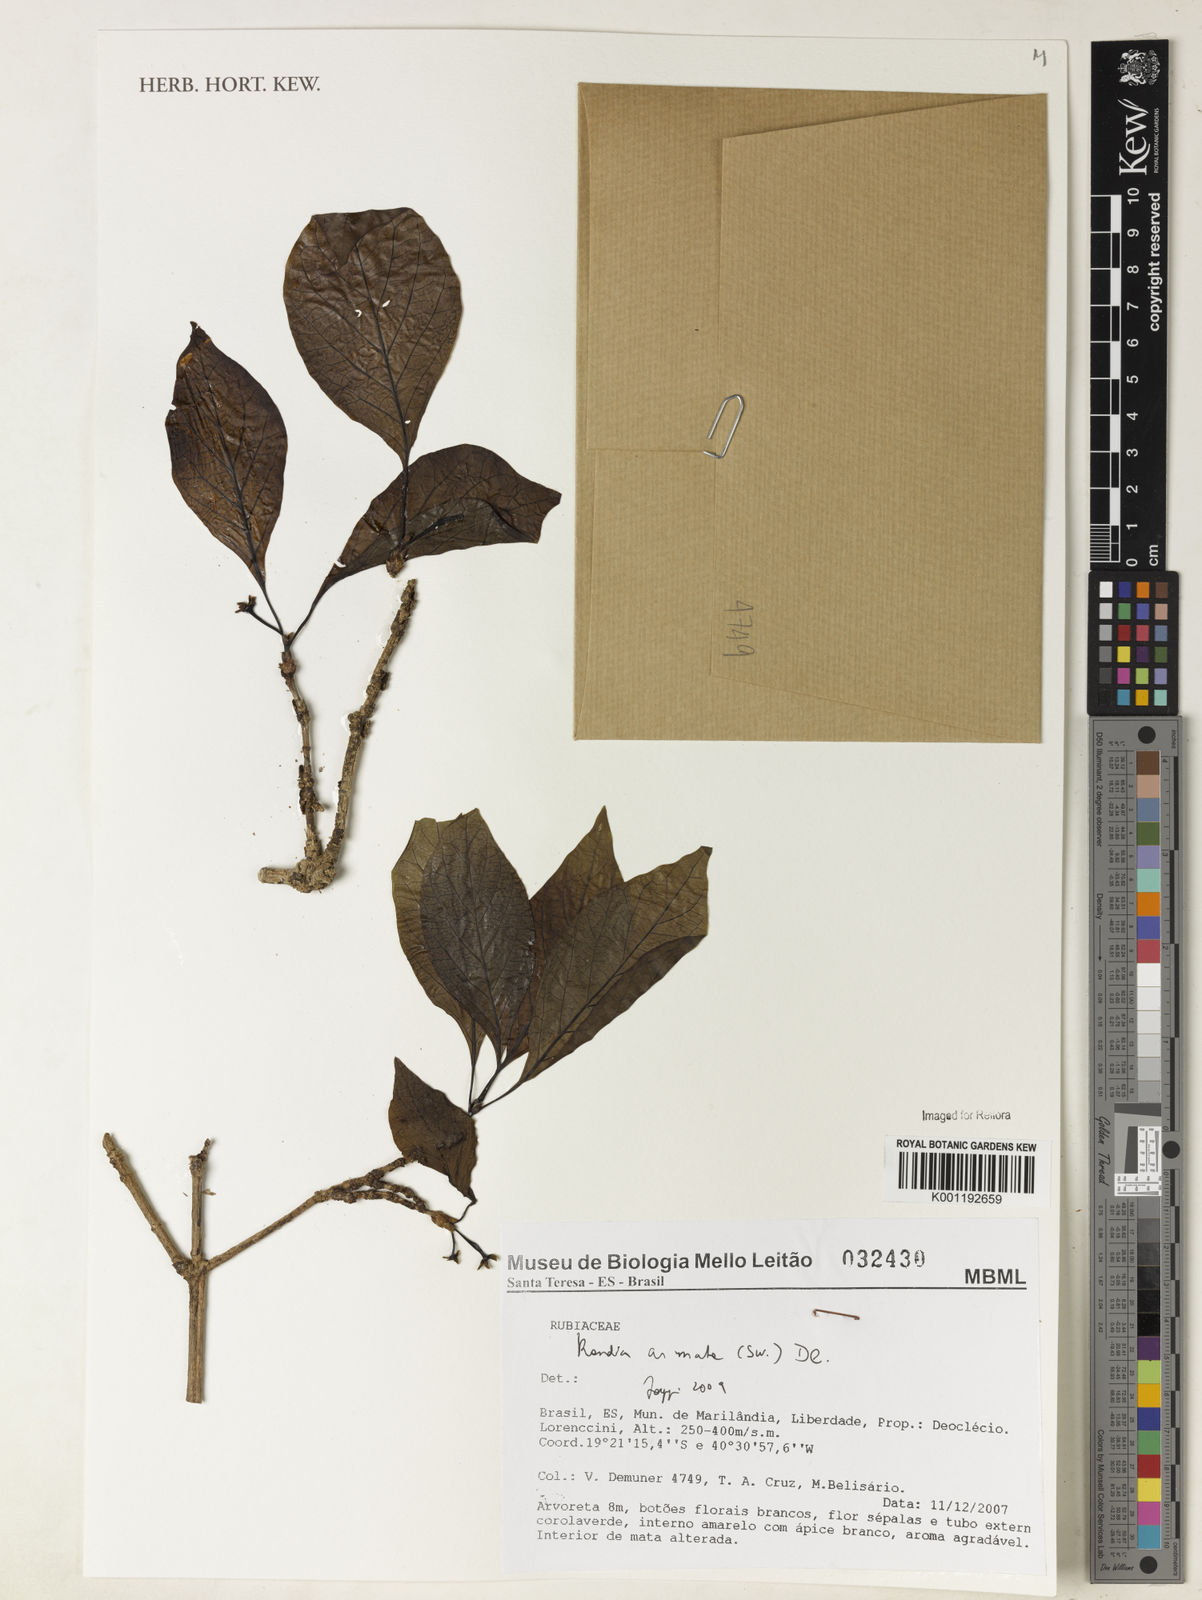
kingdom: Plantae
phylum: Tracheophyta
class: Magnoliopsida
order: Gentianales
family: Rubiaceae
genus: Randia
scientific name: Randia armata
